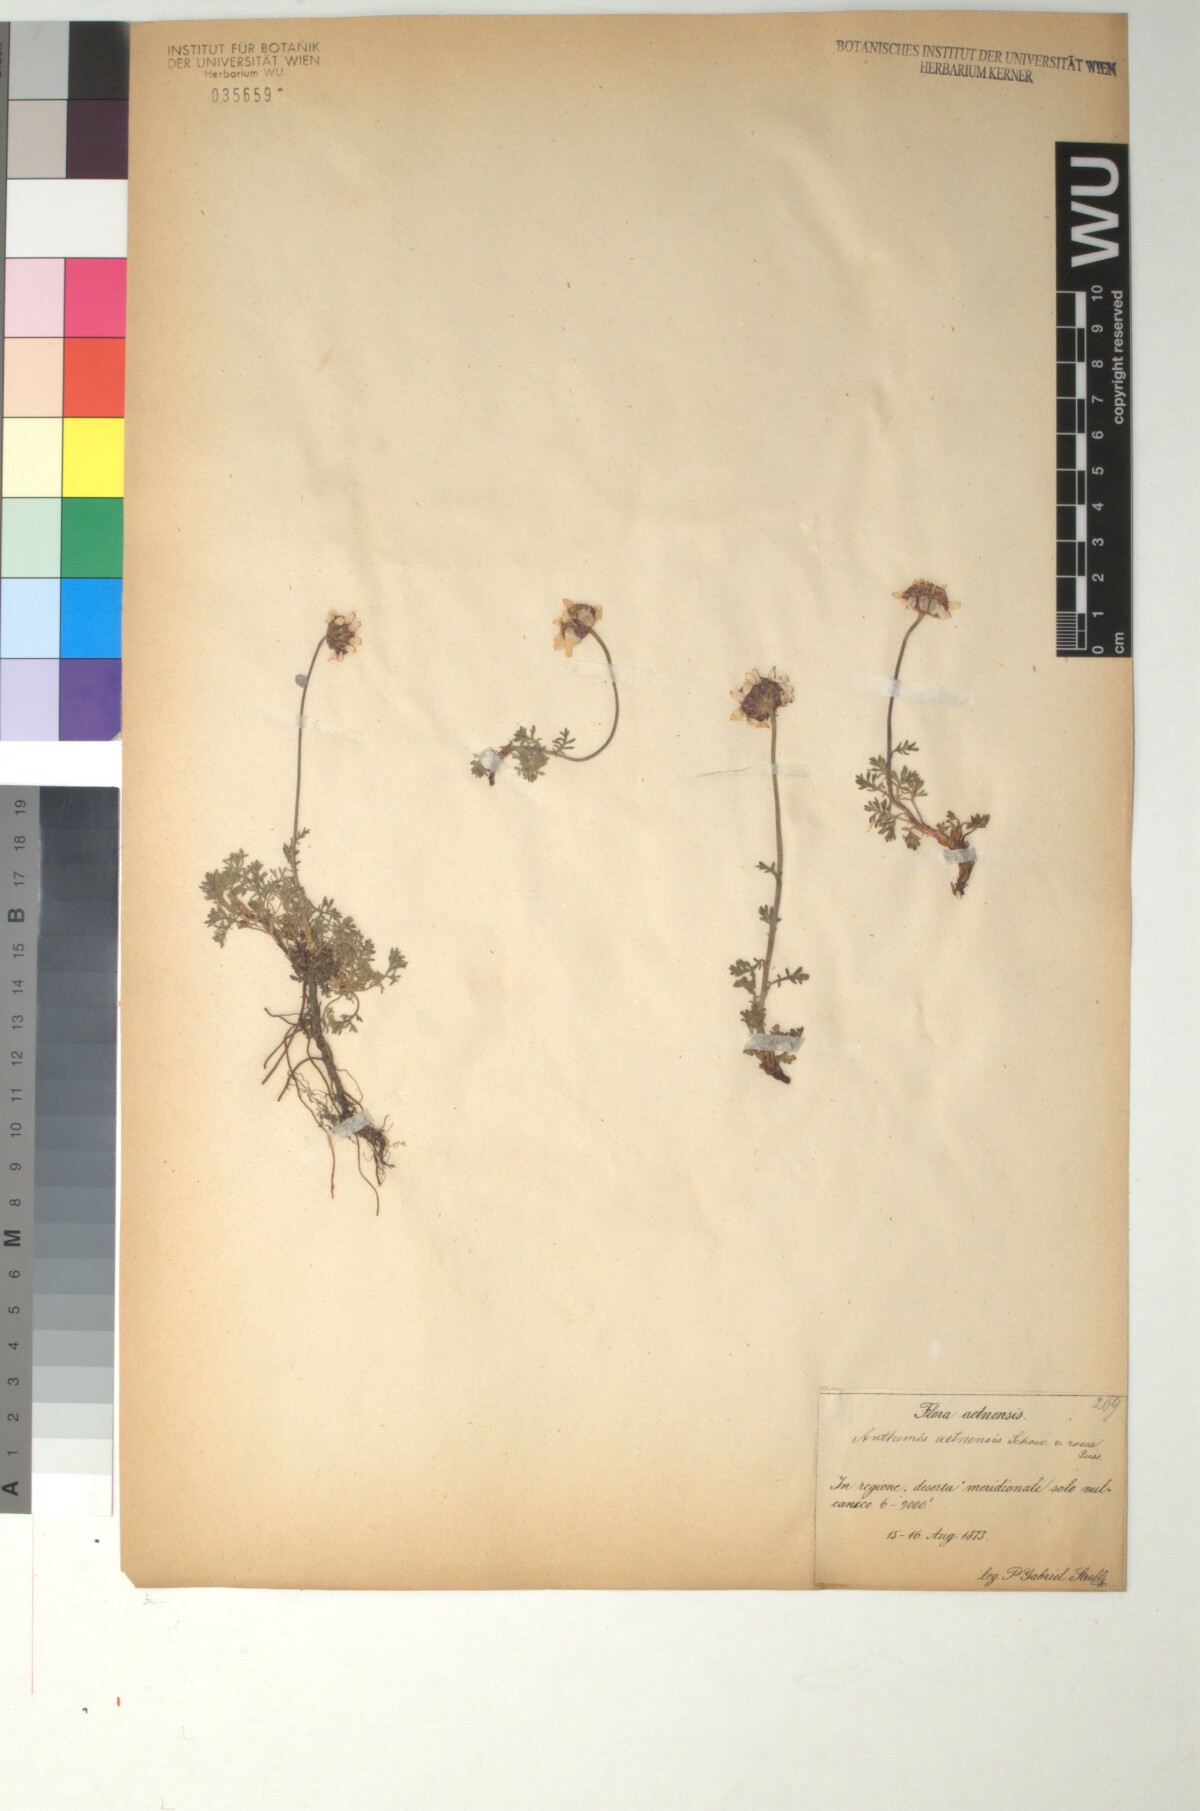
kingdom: Plantae
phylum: Tracheophyta
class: Magnoliopsida
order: Asterales
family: Asteraceae
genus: Anthemis
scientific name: Anthemis aetnensis
